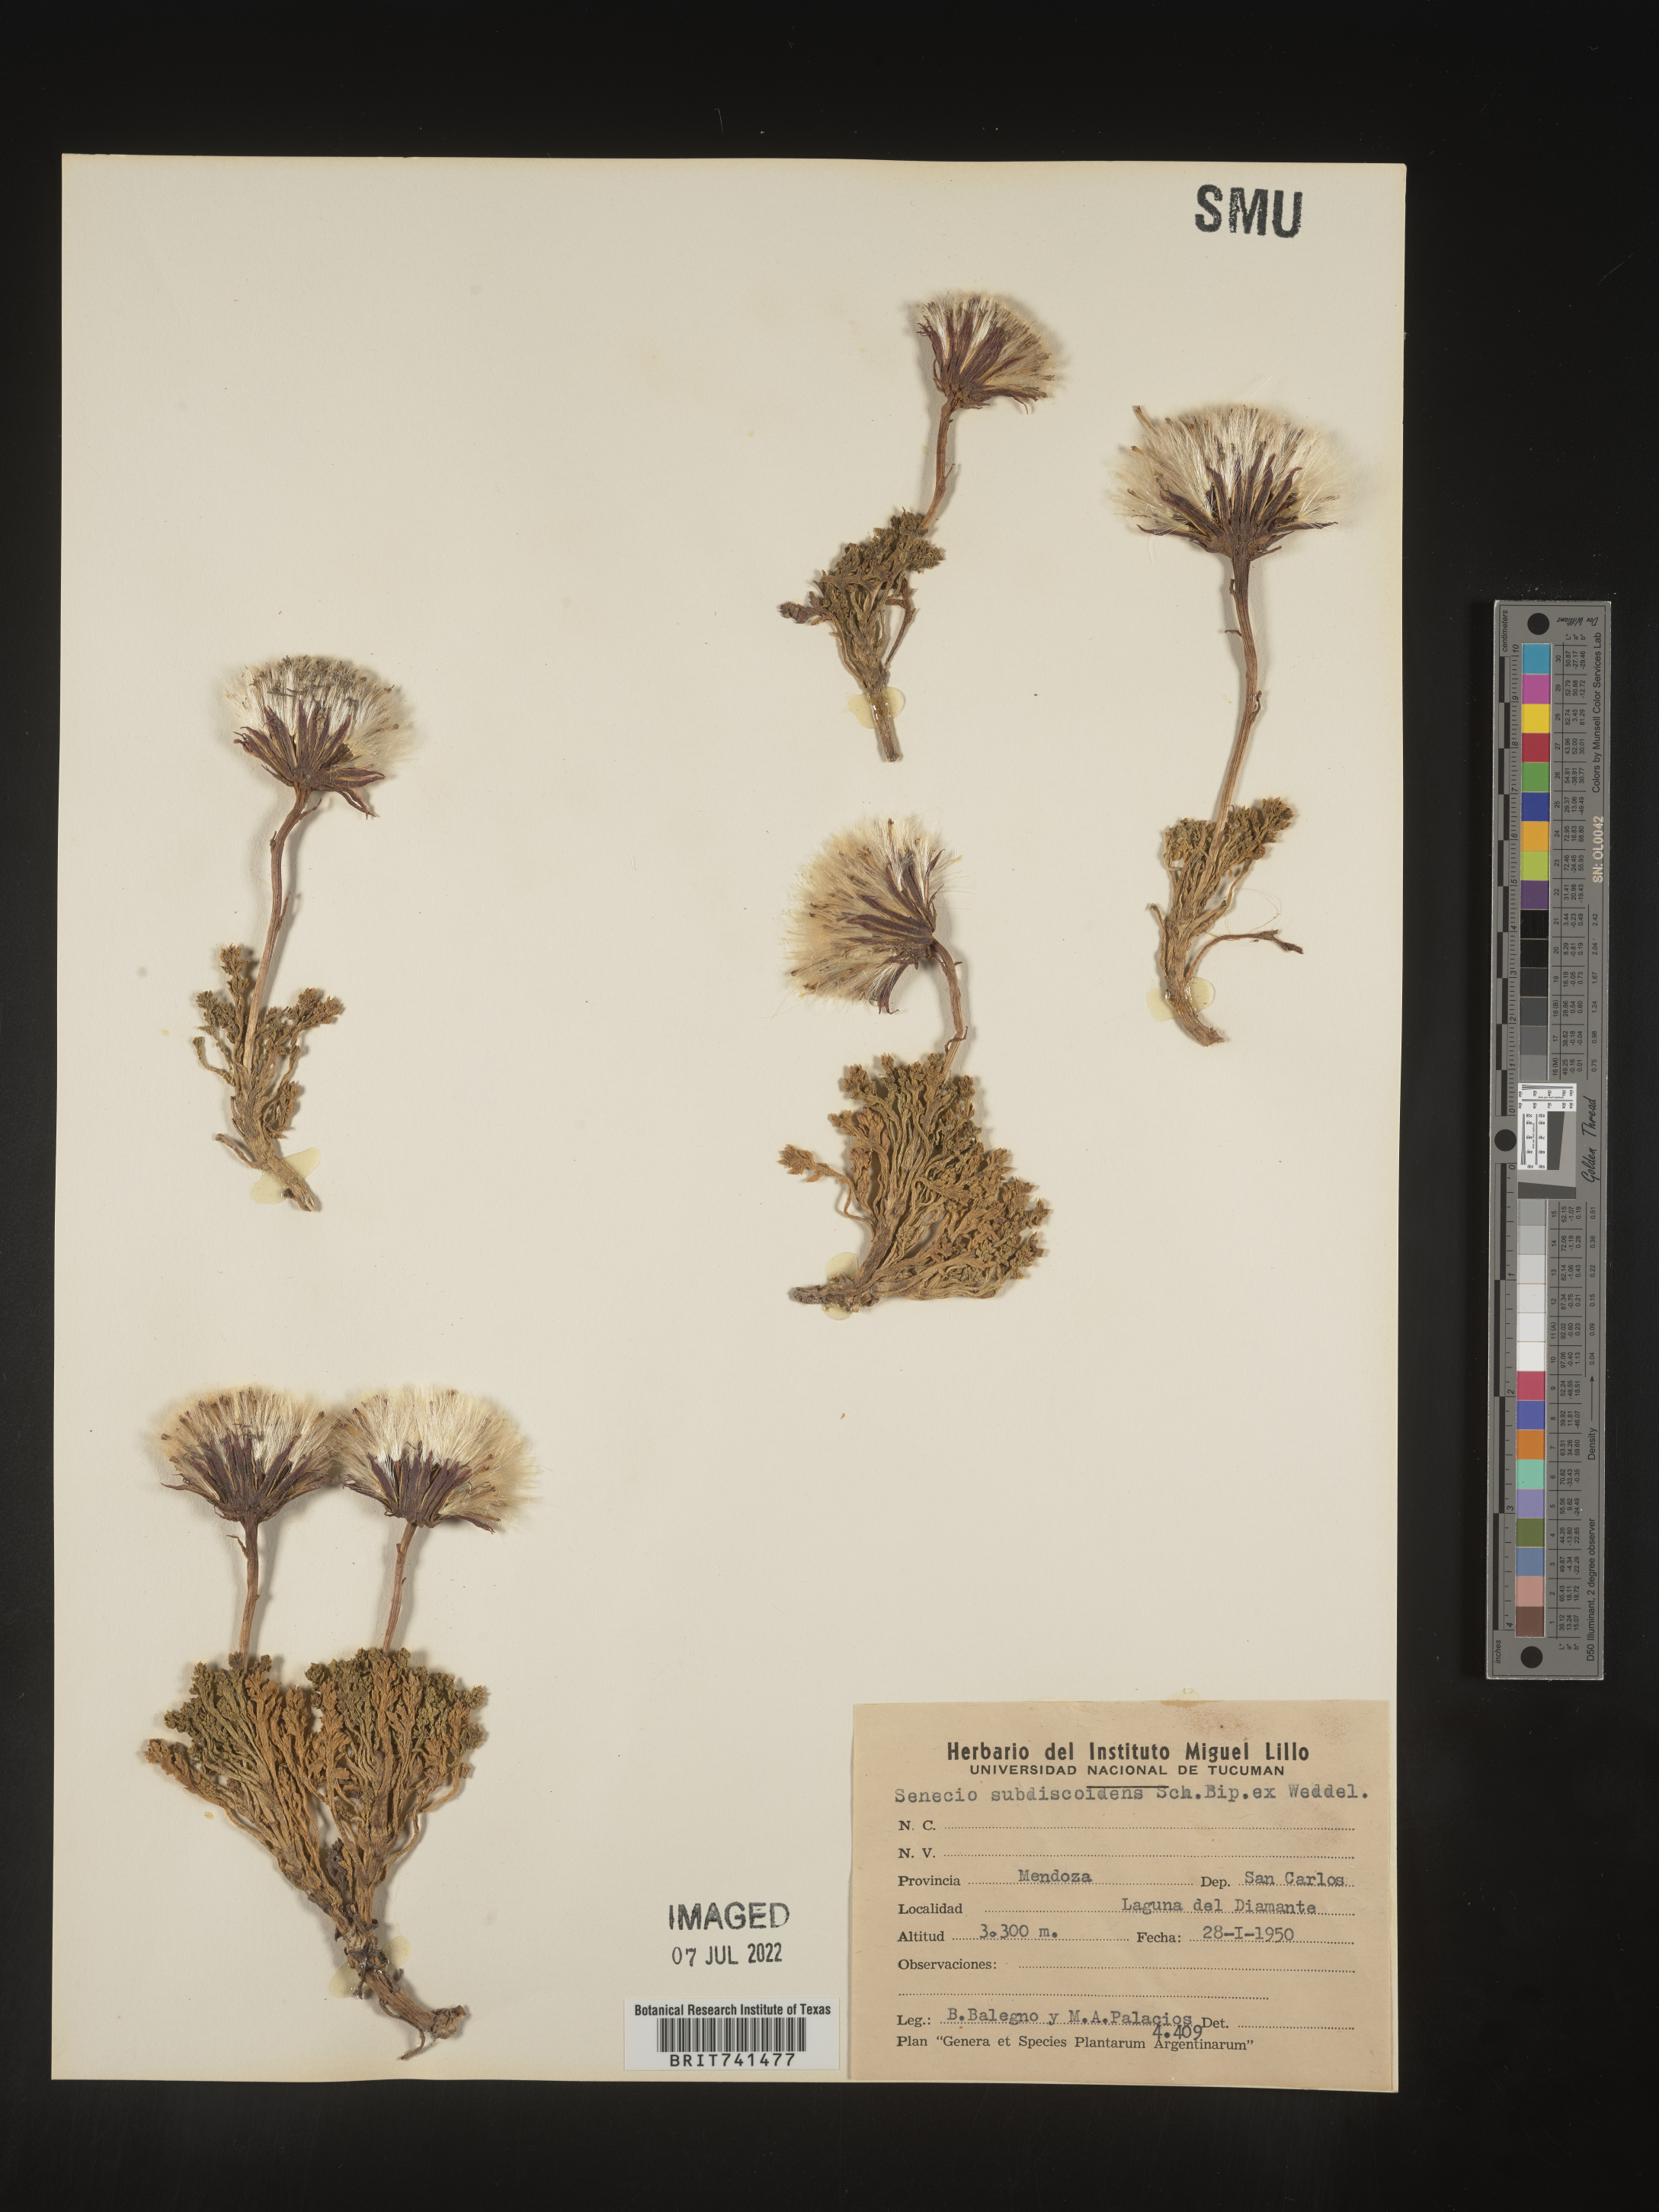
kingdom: Plantae
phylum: Tracheophyta
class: Magnoliopsida
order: Asterales
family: Asteraceae
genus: Senecio
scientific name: Senecio
